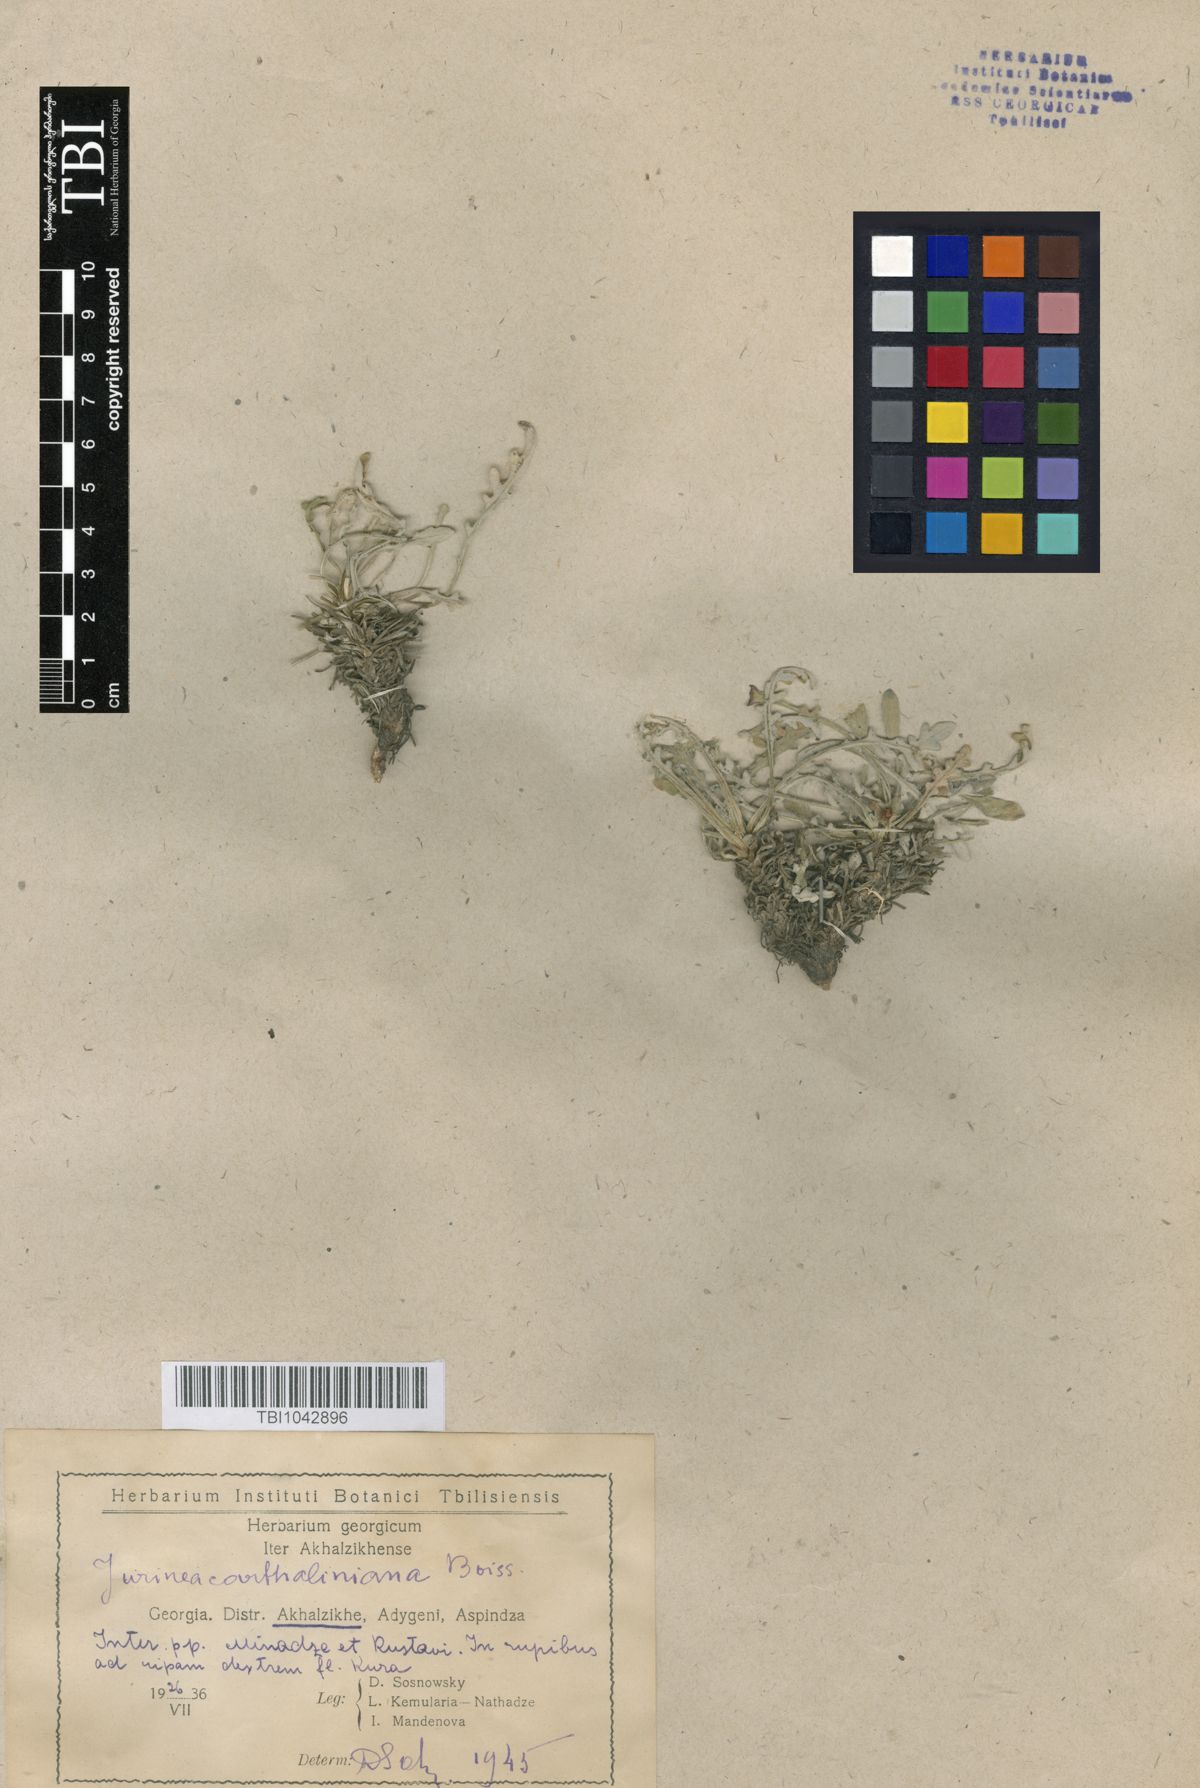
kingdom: Plantae
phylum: Tracheophyta
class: Magnoliopsida
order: Asterales
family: Asteraceae
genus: Jurinea
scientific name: Jurinea cartaliniana
